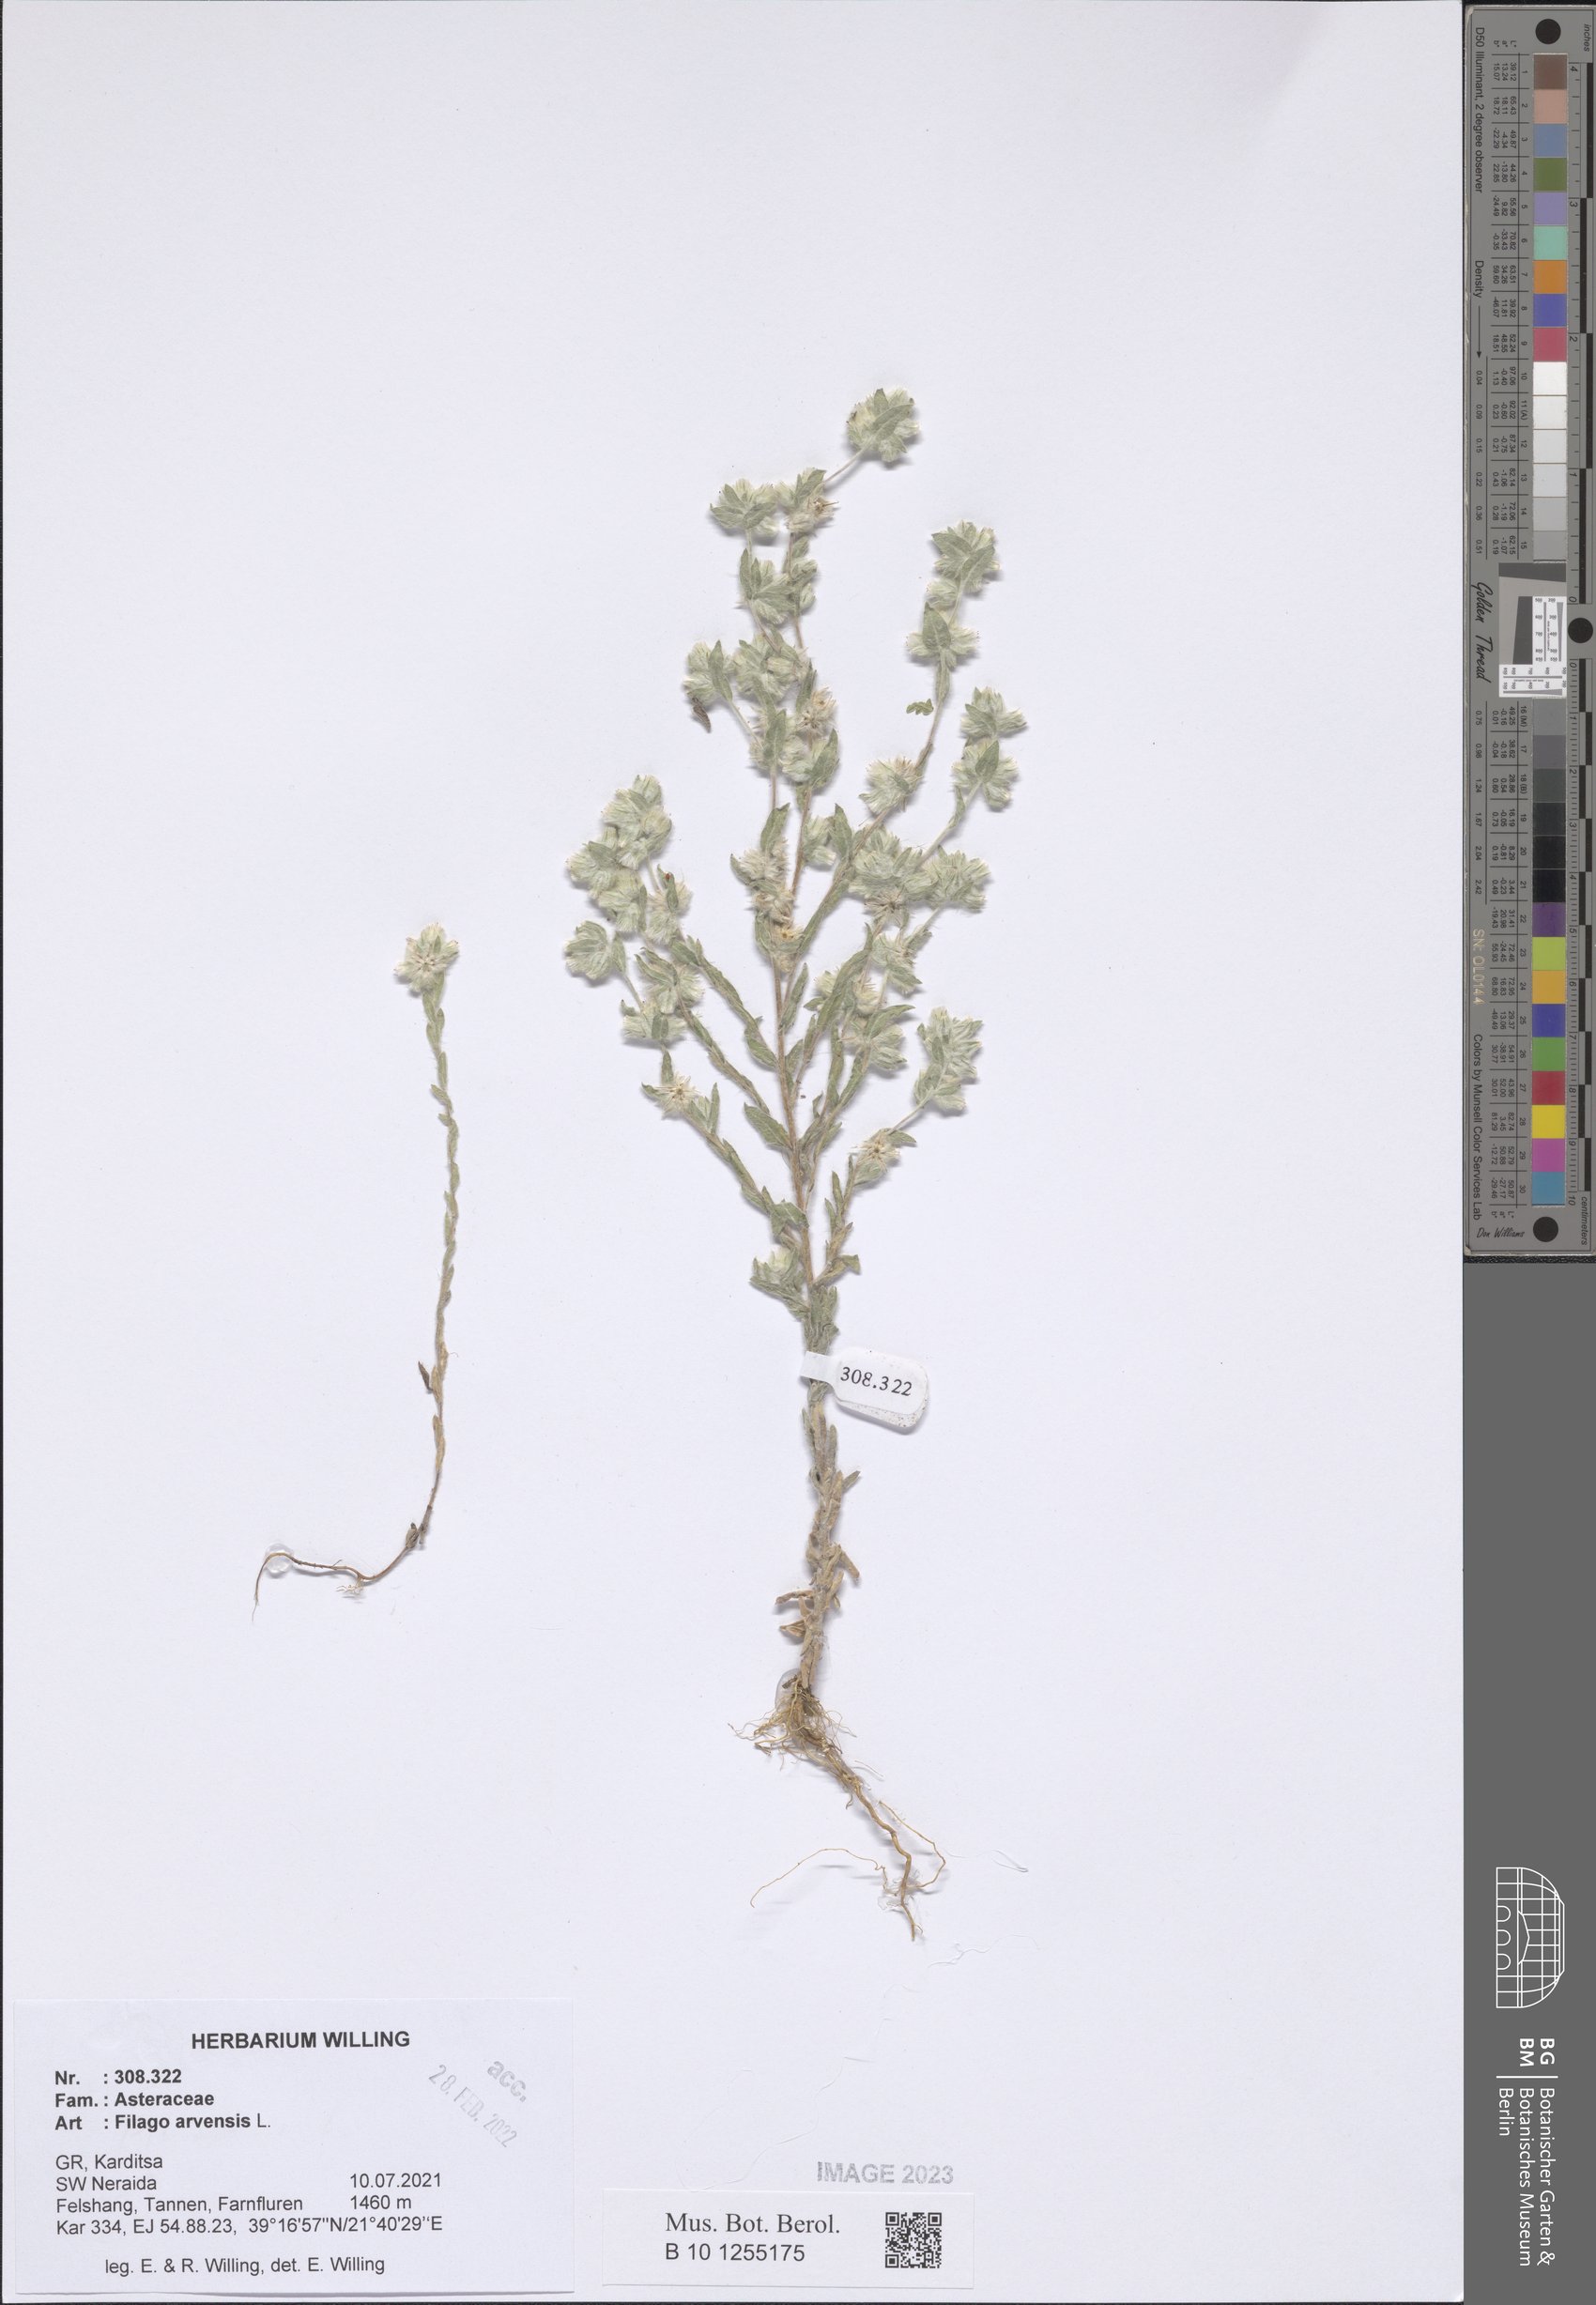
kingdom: Plantae
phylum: Tracheophyta
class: Magnoliopsida
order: Asterales
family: Asteraceae
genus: Filago
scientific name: Filago arvensis
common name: Field cudweed
